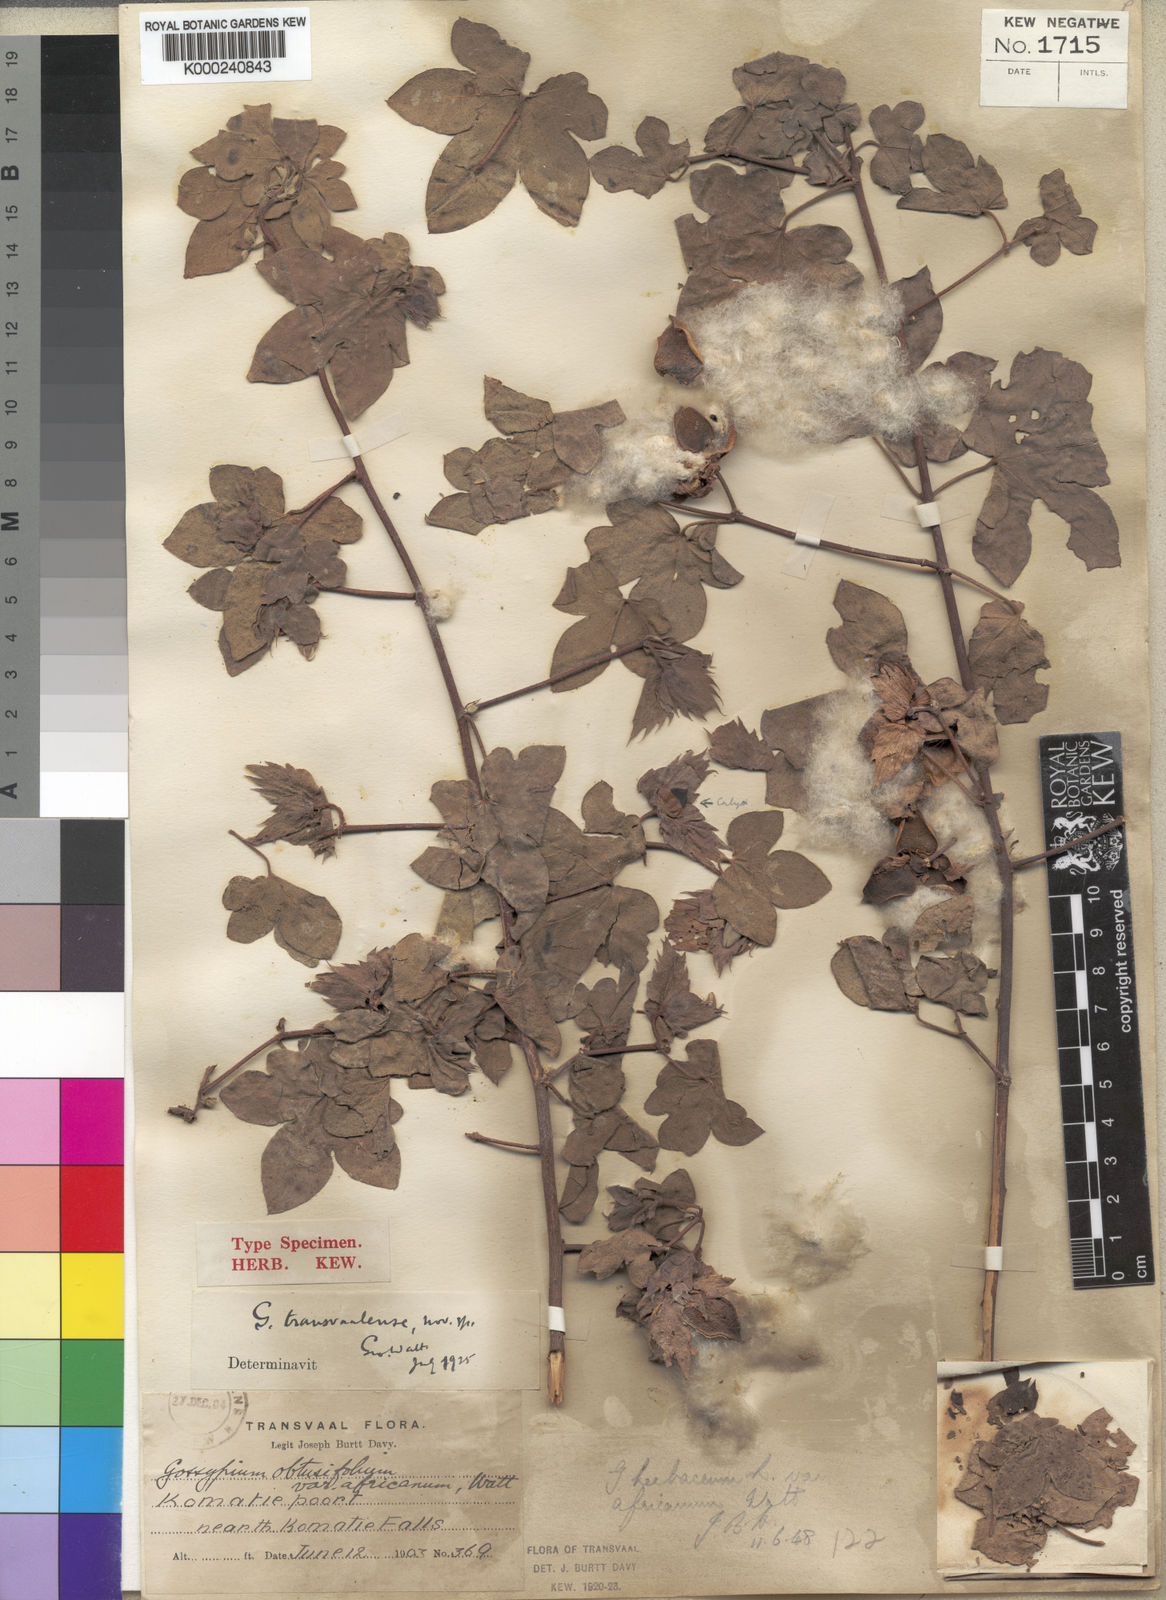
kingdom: Plantae
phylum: Tracheophyta
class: Magnoliopsida
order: Malvales
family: Malvaceae
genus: Gossypium
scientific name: Gossypium herbaceum
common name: Levant cotton
